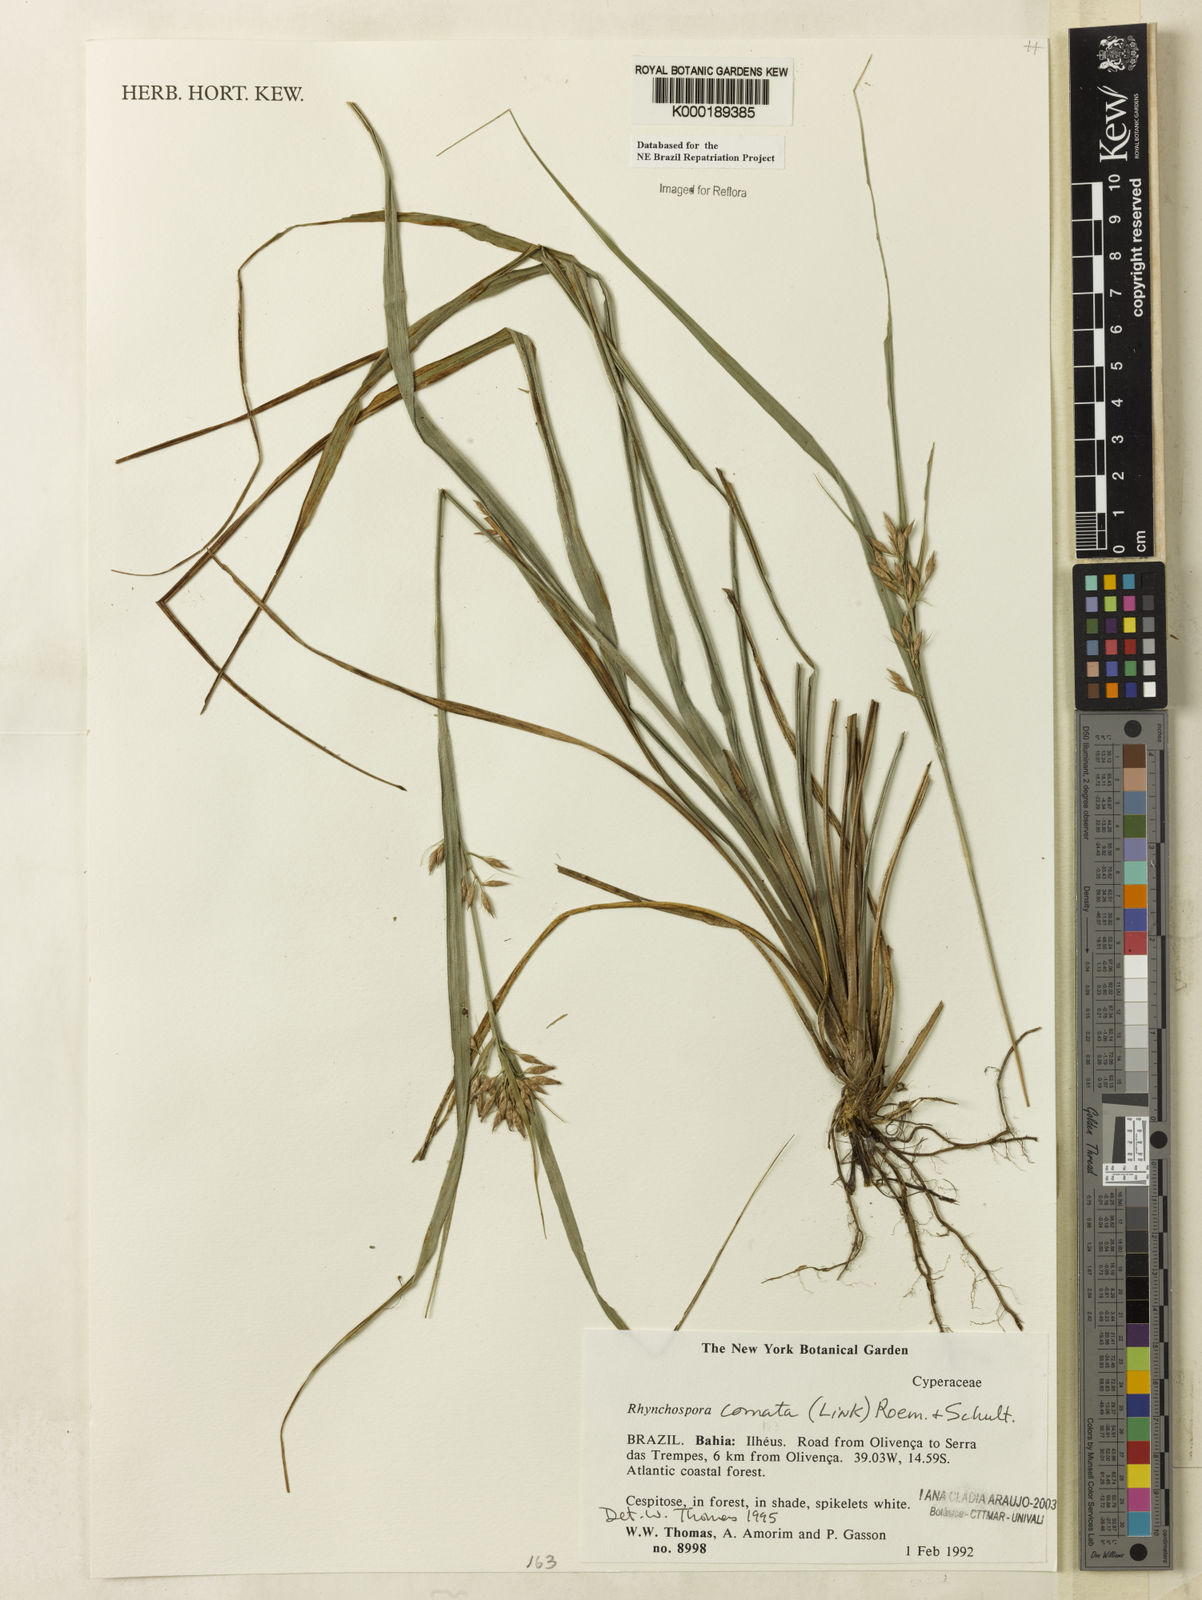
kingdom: Plantae
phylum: Tracheophyta
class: Liliopsida
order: Poales
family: Cyperaceae
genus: Rhynchospora
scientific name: Rhynchospora comata
